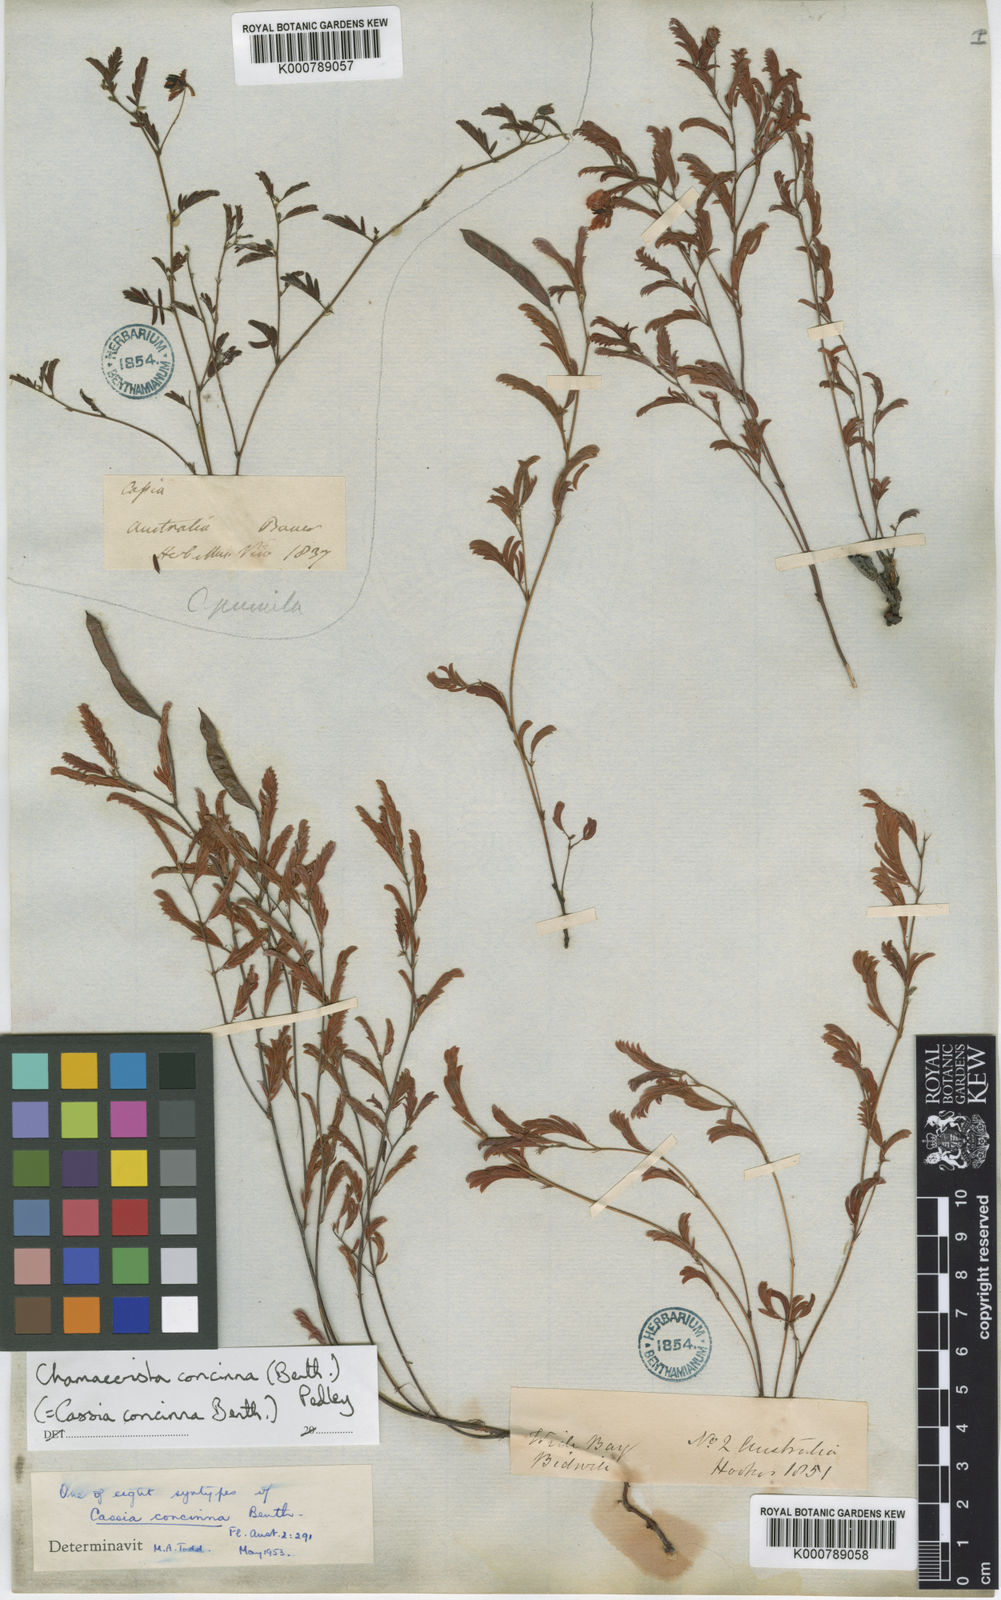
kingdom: Plantae
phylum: Tracheophyta
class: Magnoliopsida
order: Fabales
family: Fabaceae
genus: Chamaecrista
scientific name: Chamaecrista concinna
